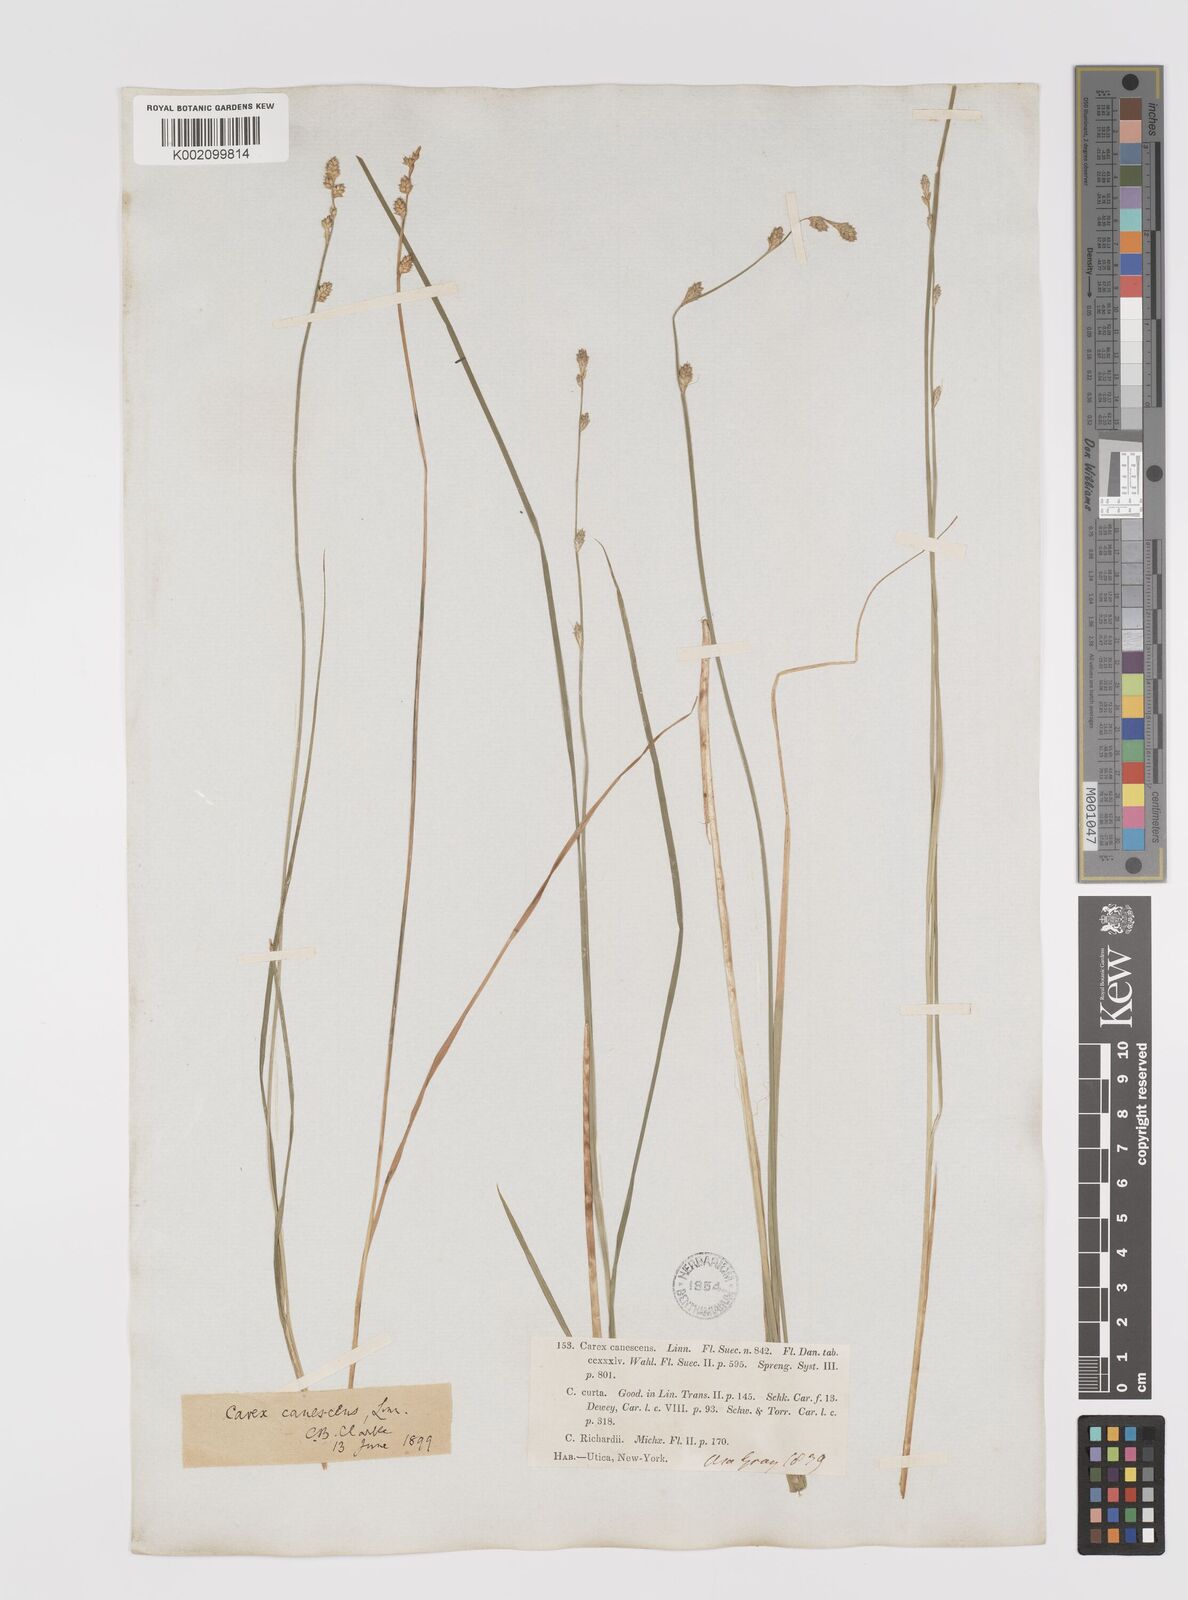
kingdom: Plantae
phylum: Tracheophyta
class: Liliopsida
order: Poales
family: Cyperaceae
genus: Carex
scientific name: Carex curta
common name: White sedge
